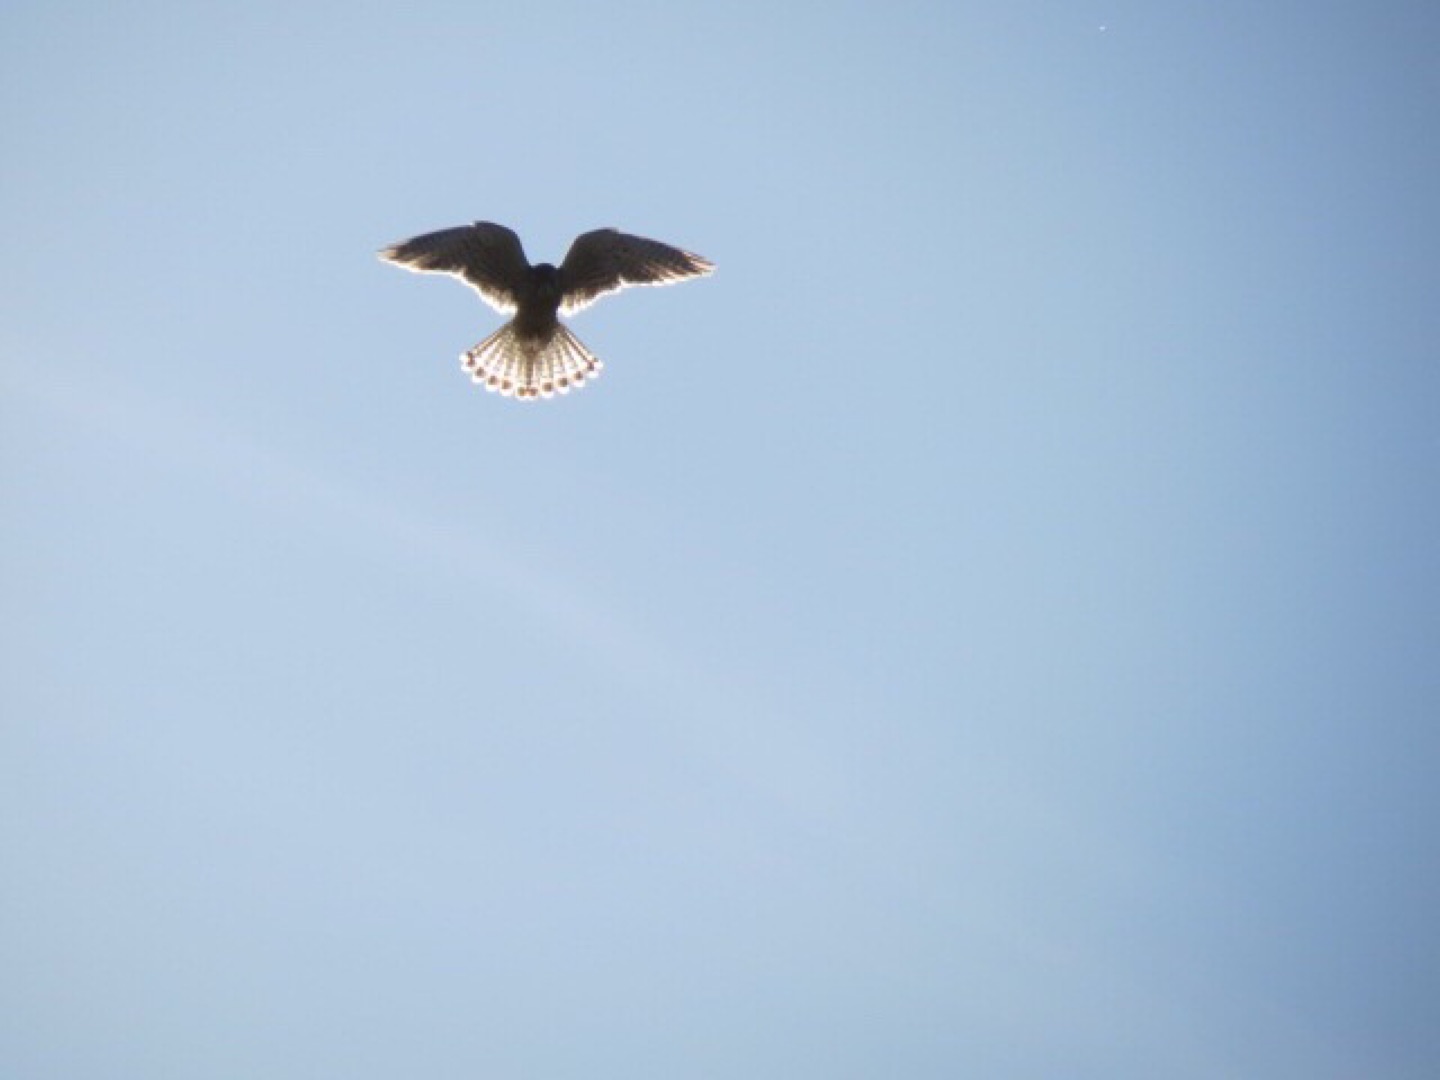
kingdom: Animalia
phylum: Chordata
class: Aves
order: Falconiformes
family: Falconidae
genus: Falco
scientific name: Falco tinnunculus
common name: Tårnfalk
